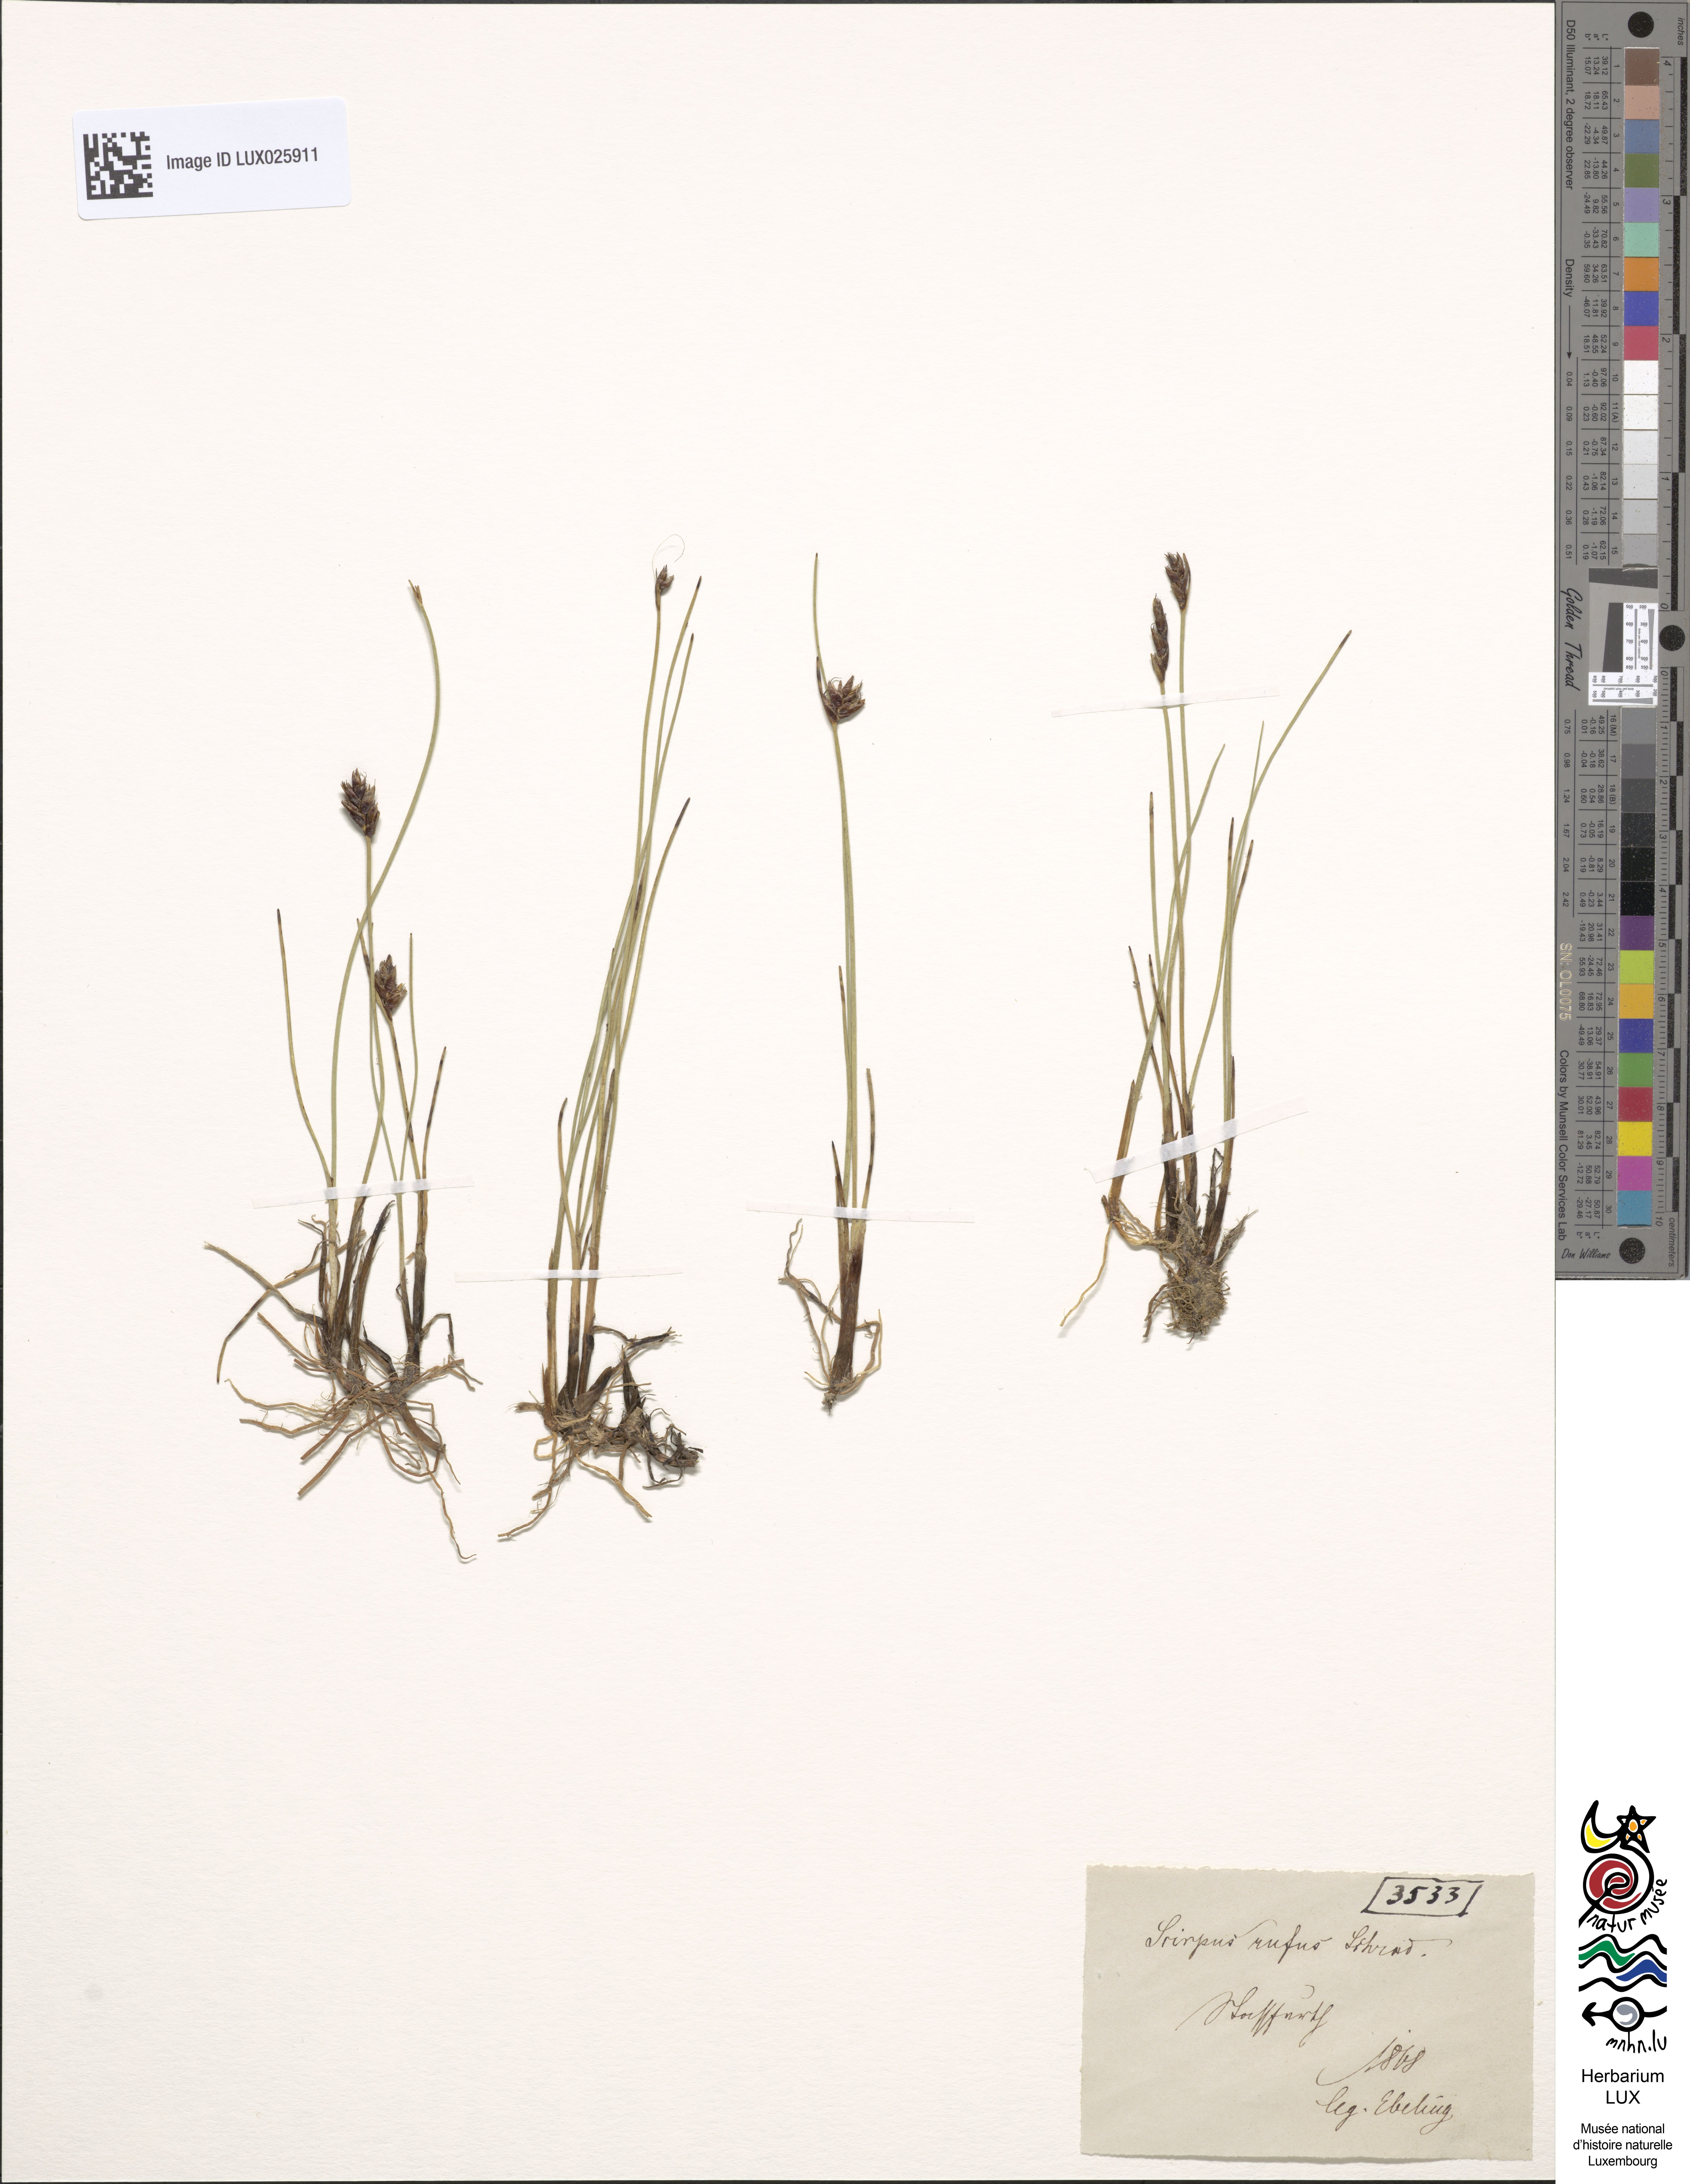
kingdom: Plantae
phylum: Tracheophyta
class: Liliopsida
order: Poales
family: Cyperaceae
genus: Blysmus
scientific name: Blysmus rufus
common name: Saltmarsh flat-sedge
